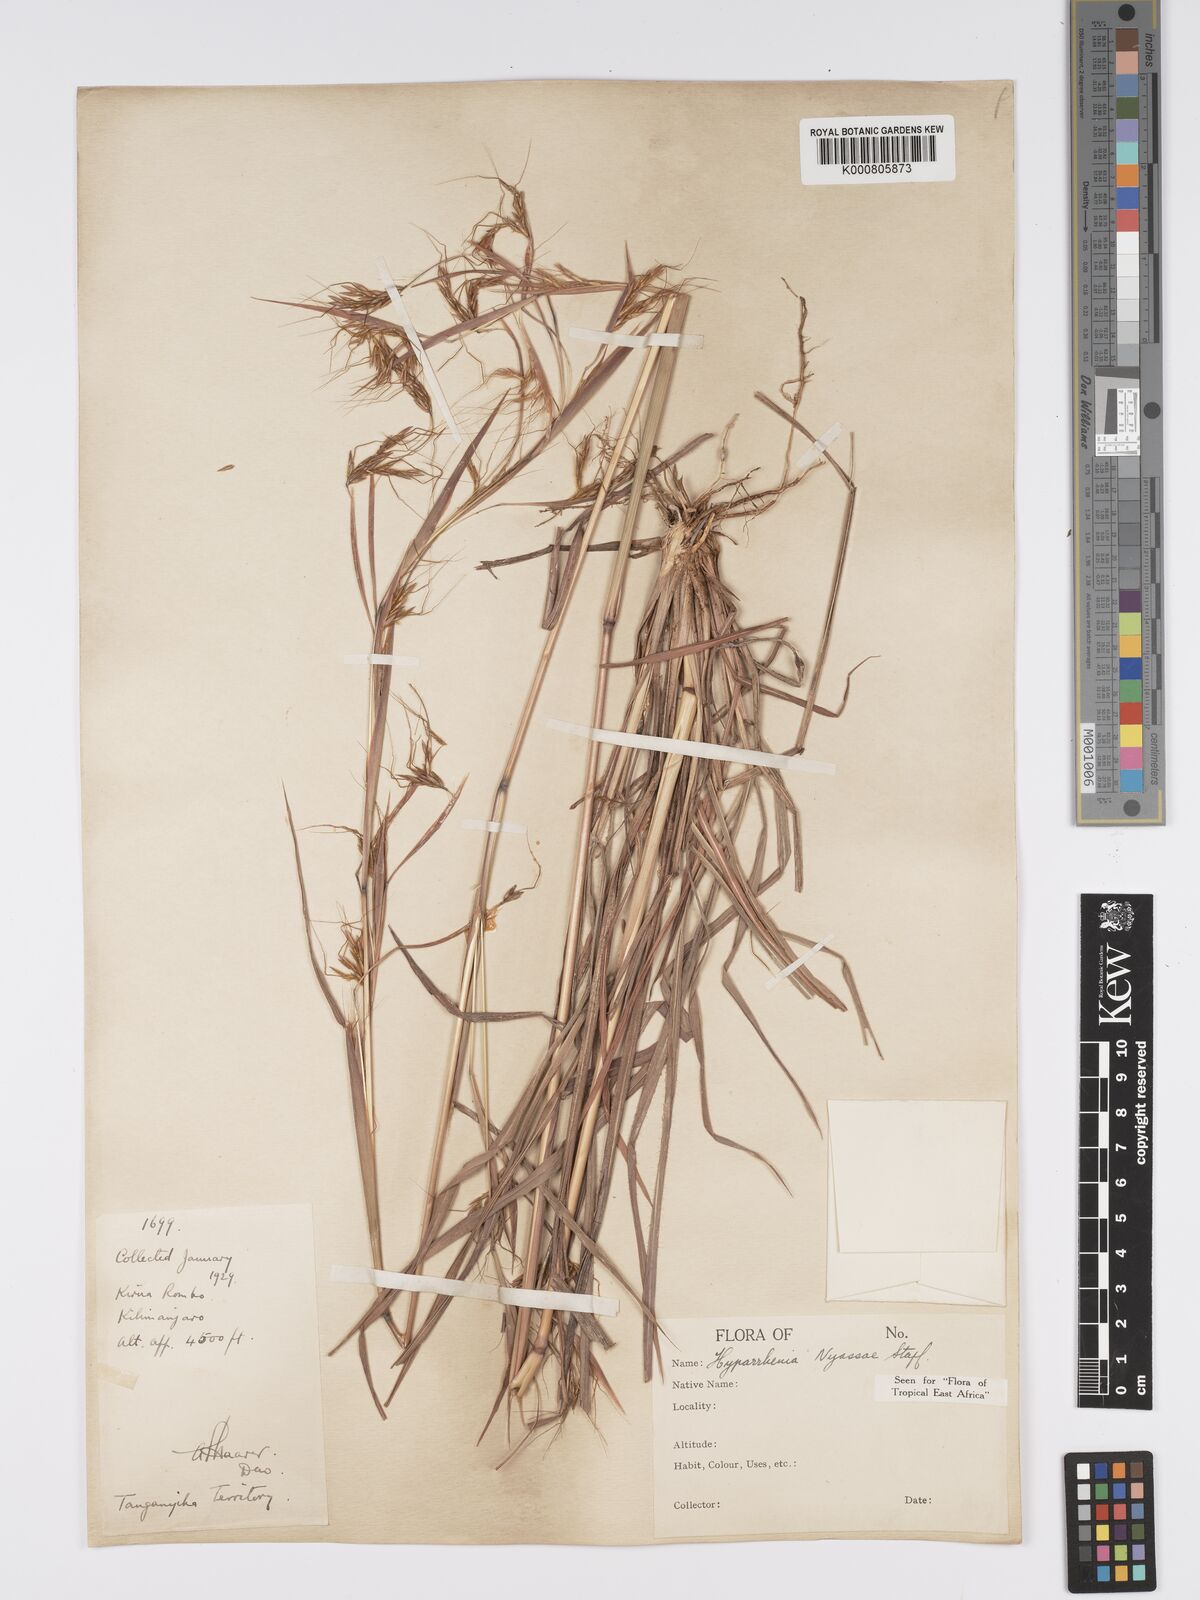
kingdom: Plantae
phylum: Tracheophyta
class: Liliopsida
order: Poales
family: Poaceae
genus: Hyparrhenia
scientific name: Hyparrhenia nyassae
